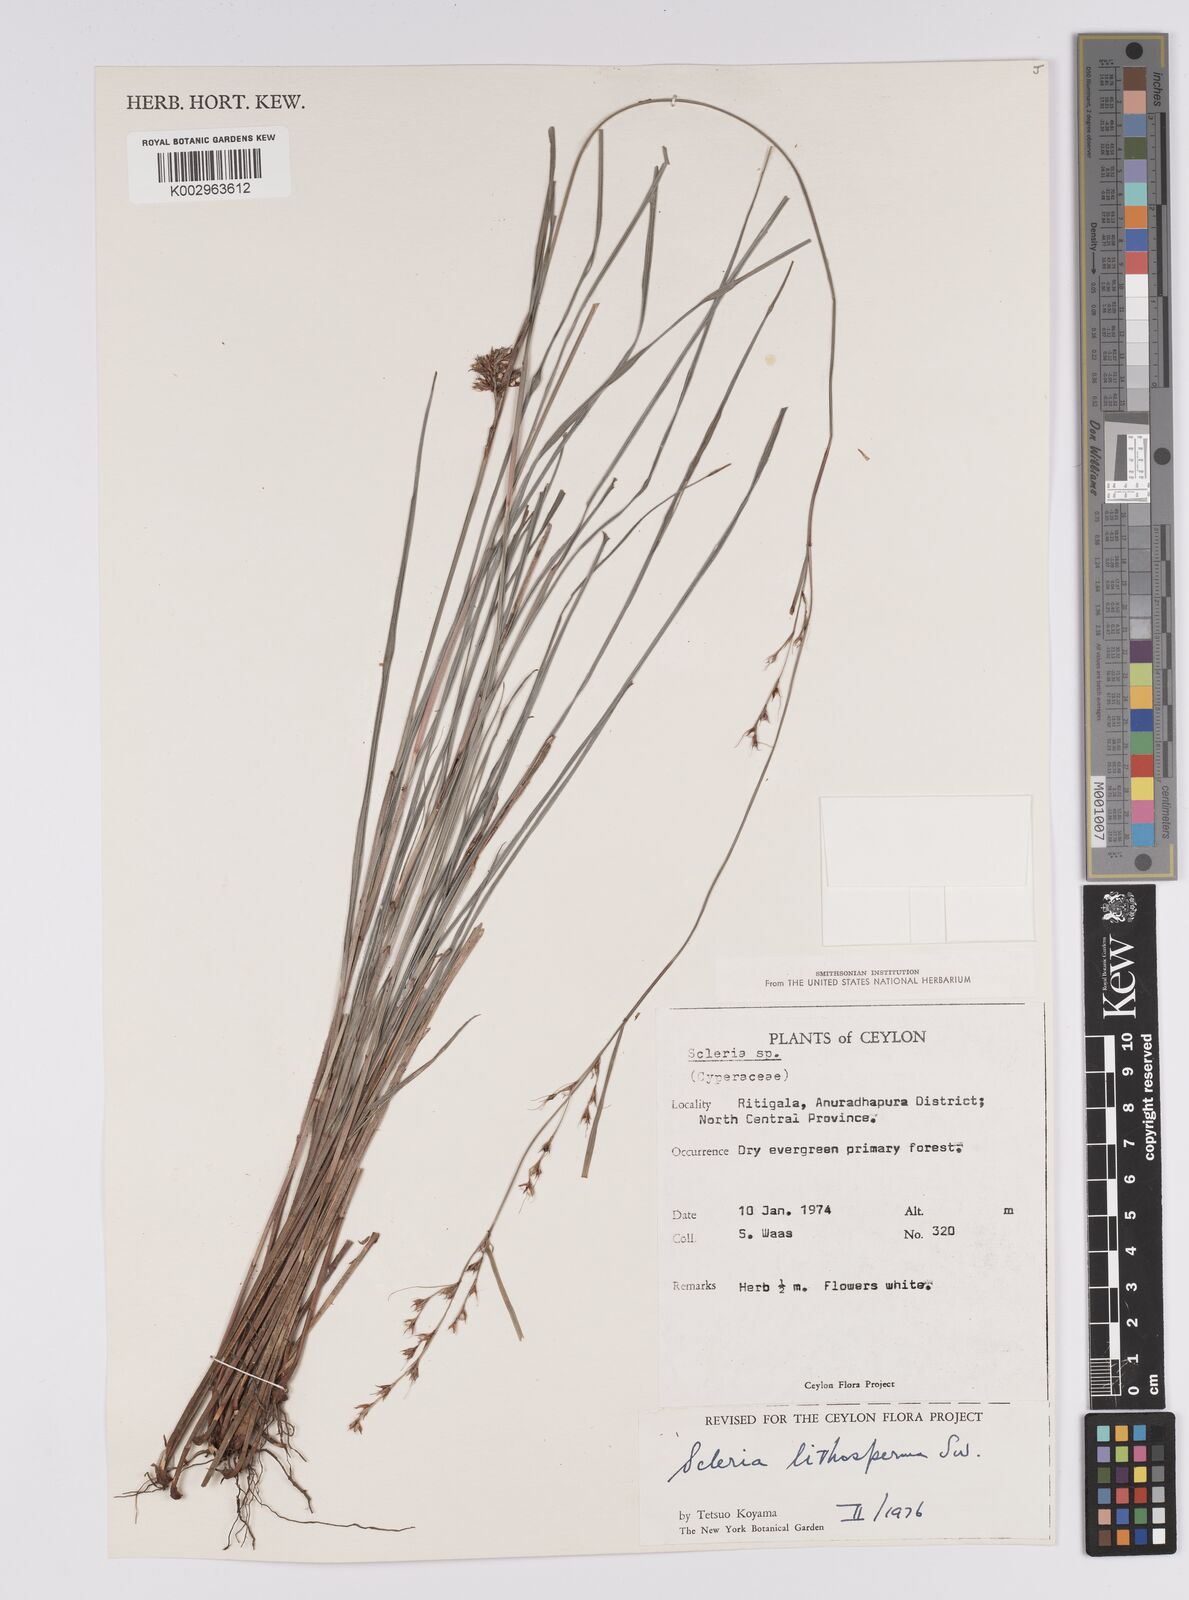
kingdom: Plantae
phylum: Tracheophyta
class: Liliopsida
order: Poales
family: Cyperaceae
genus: Scleria
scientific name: Scleria lithosperma
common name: Florida keys nut-rush
